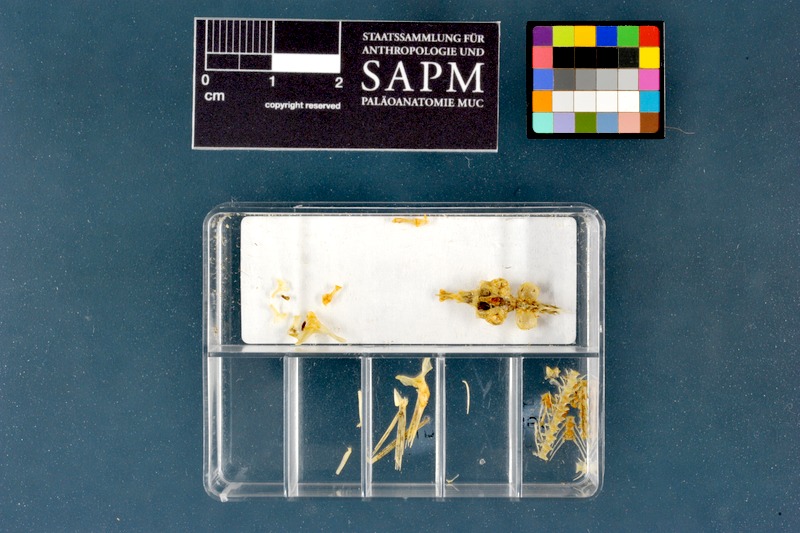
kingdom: Animalia
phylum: Chordata
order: Cypriniformes
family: Nemacheilidae
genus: Barbatula
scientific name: Barbatula barbatula
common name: Stone loach
